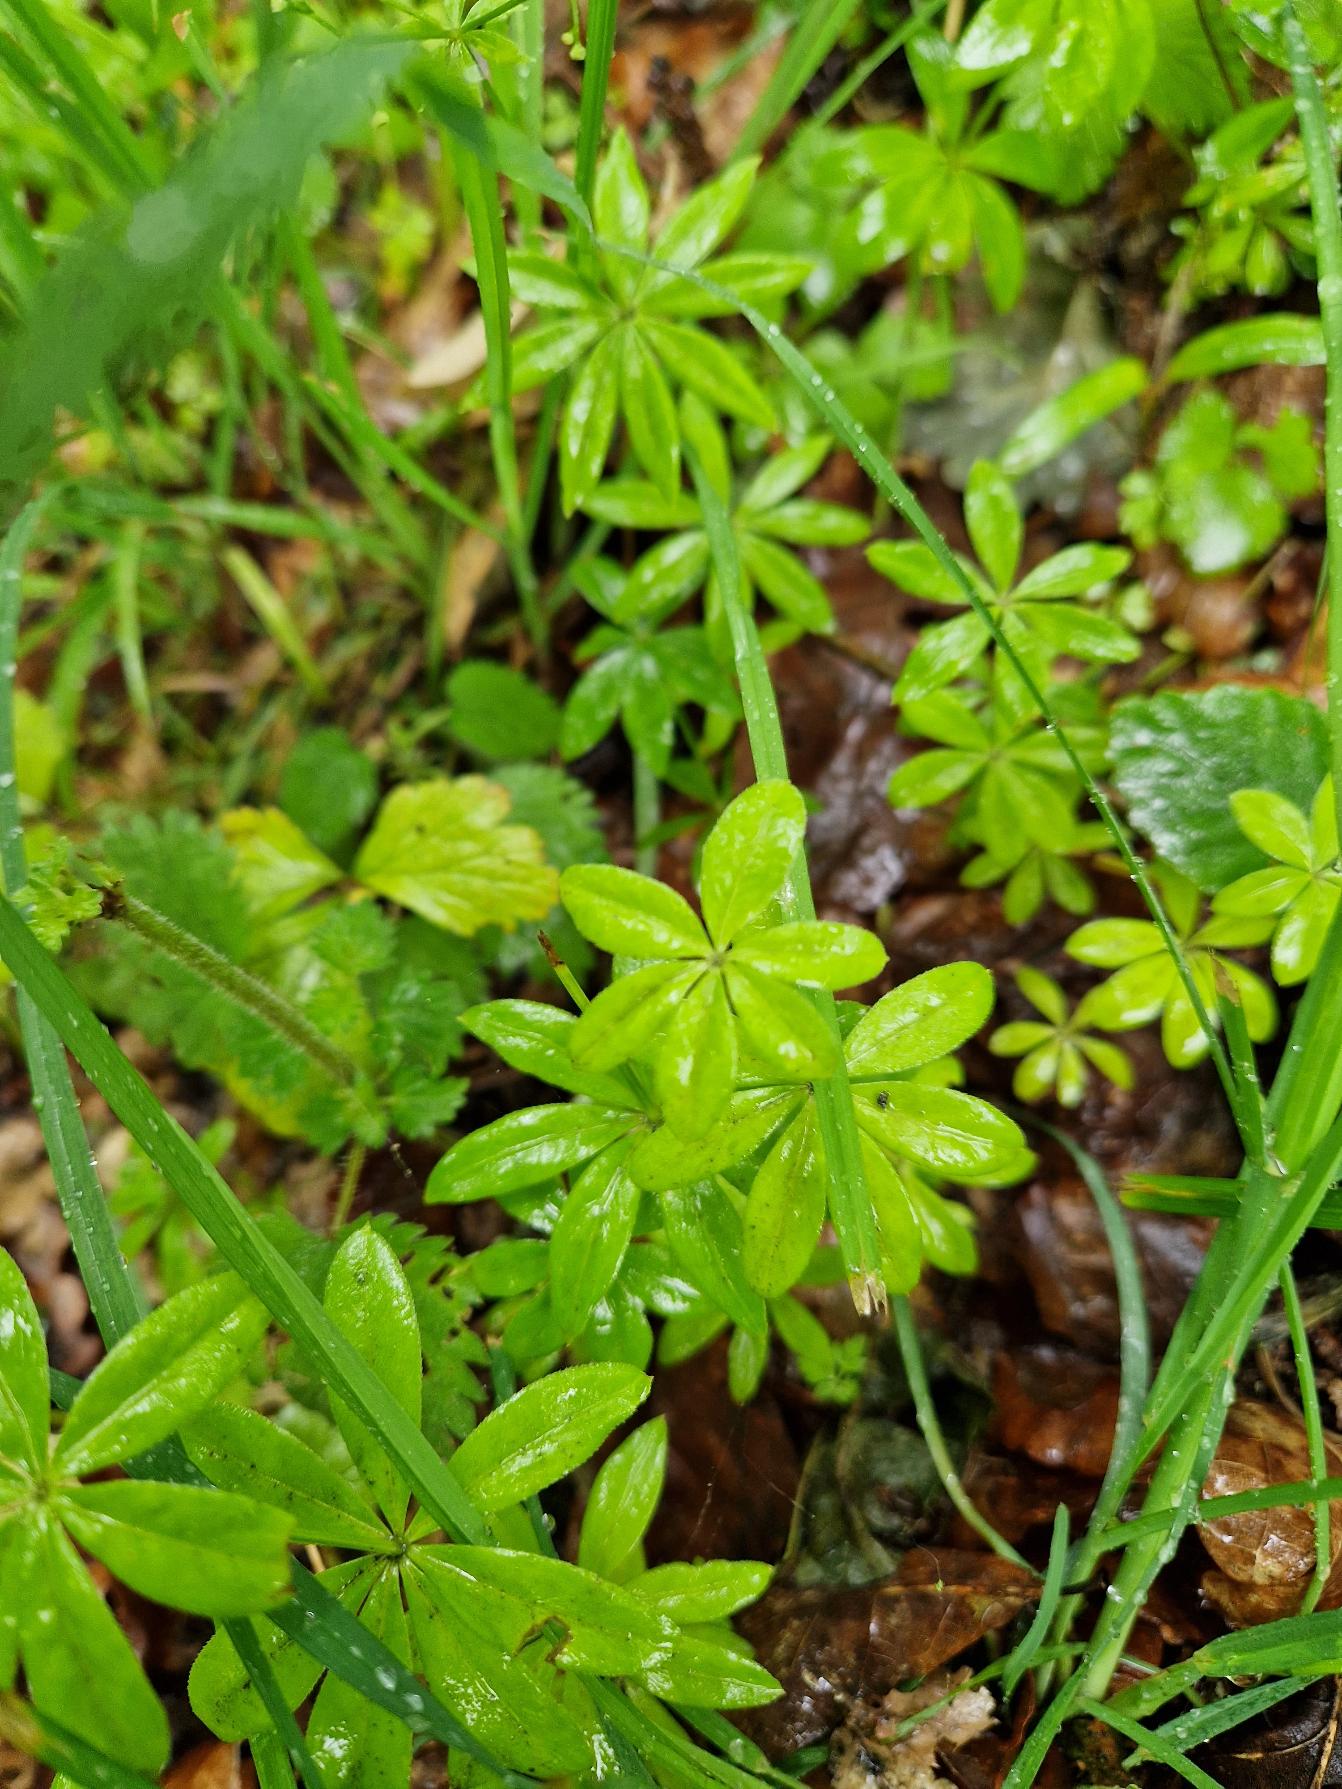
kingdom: Plantae
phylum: Tracheophyta
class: Magnoliopsida
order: Gentianales
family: Rubiaceae
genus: Galium
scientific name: Galium odoratum
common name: Skovmærke
